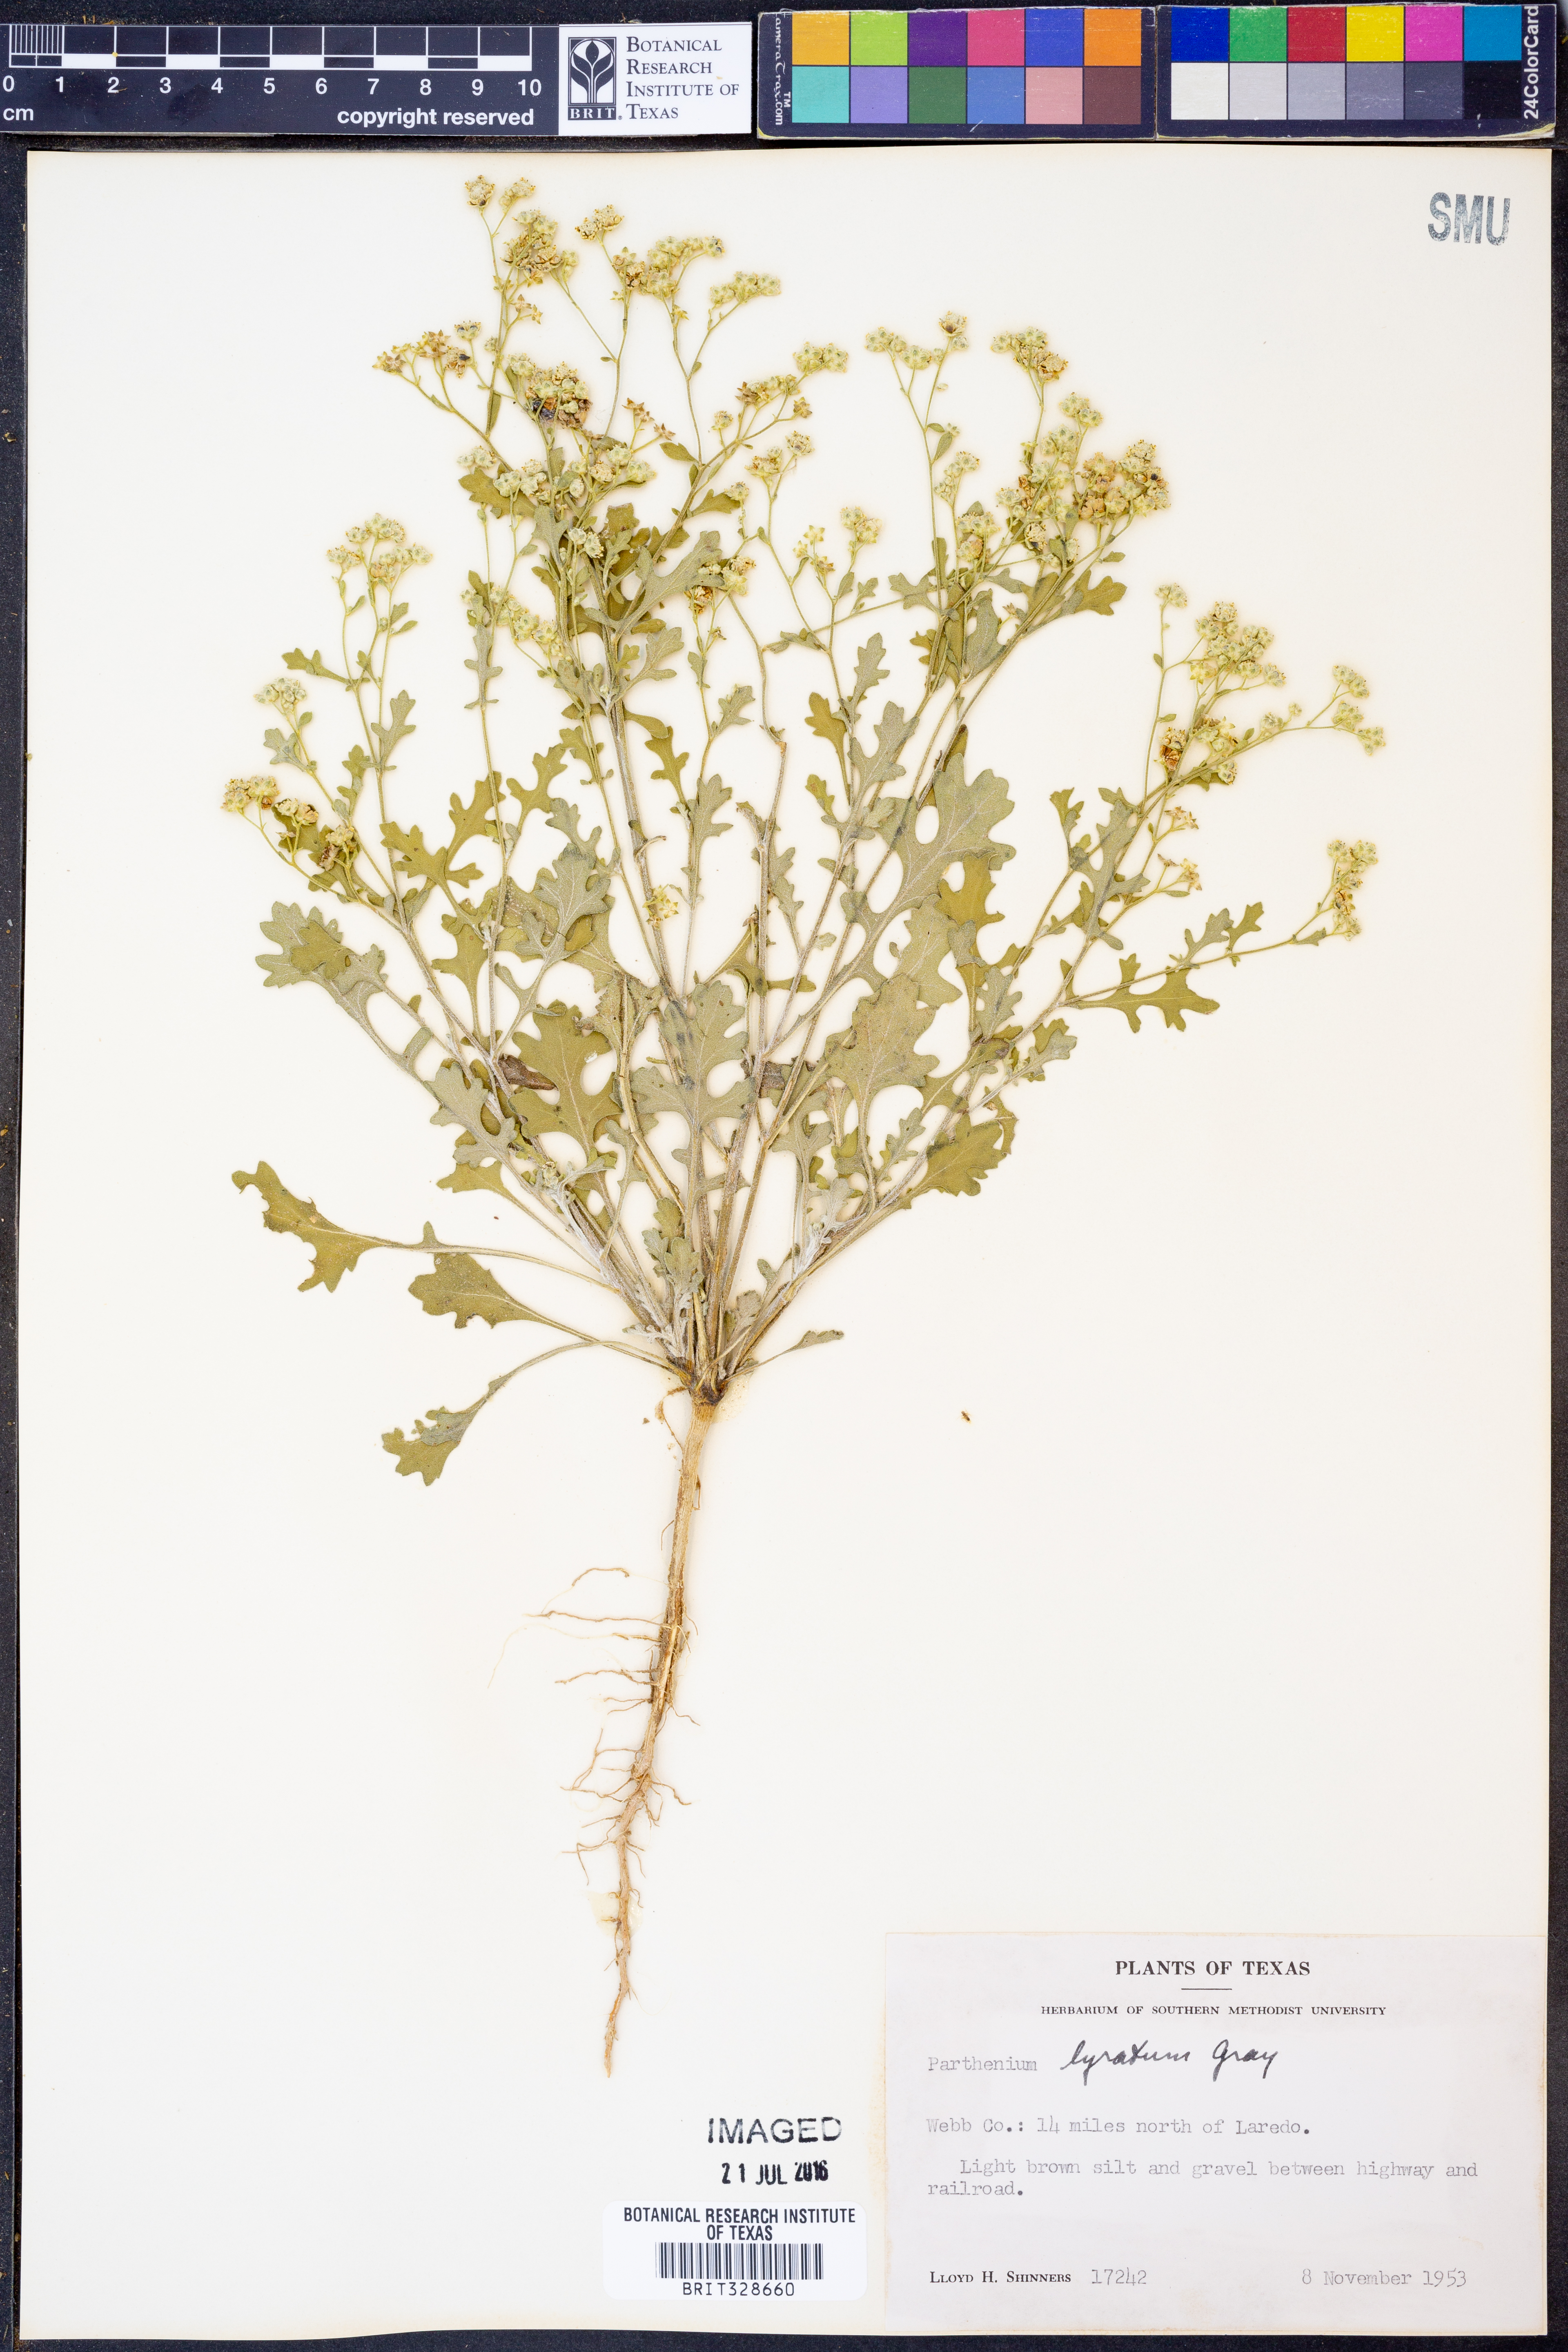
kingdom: Plantae
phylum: Tracheophyta
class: Magnoliopsida
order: Asterales
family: Asteraceae
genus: Parthenium
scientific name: Parthenium confertum
